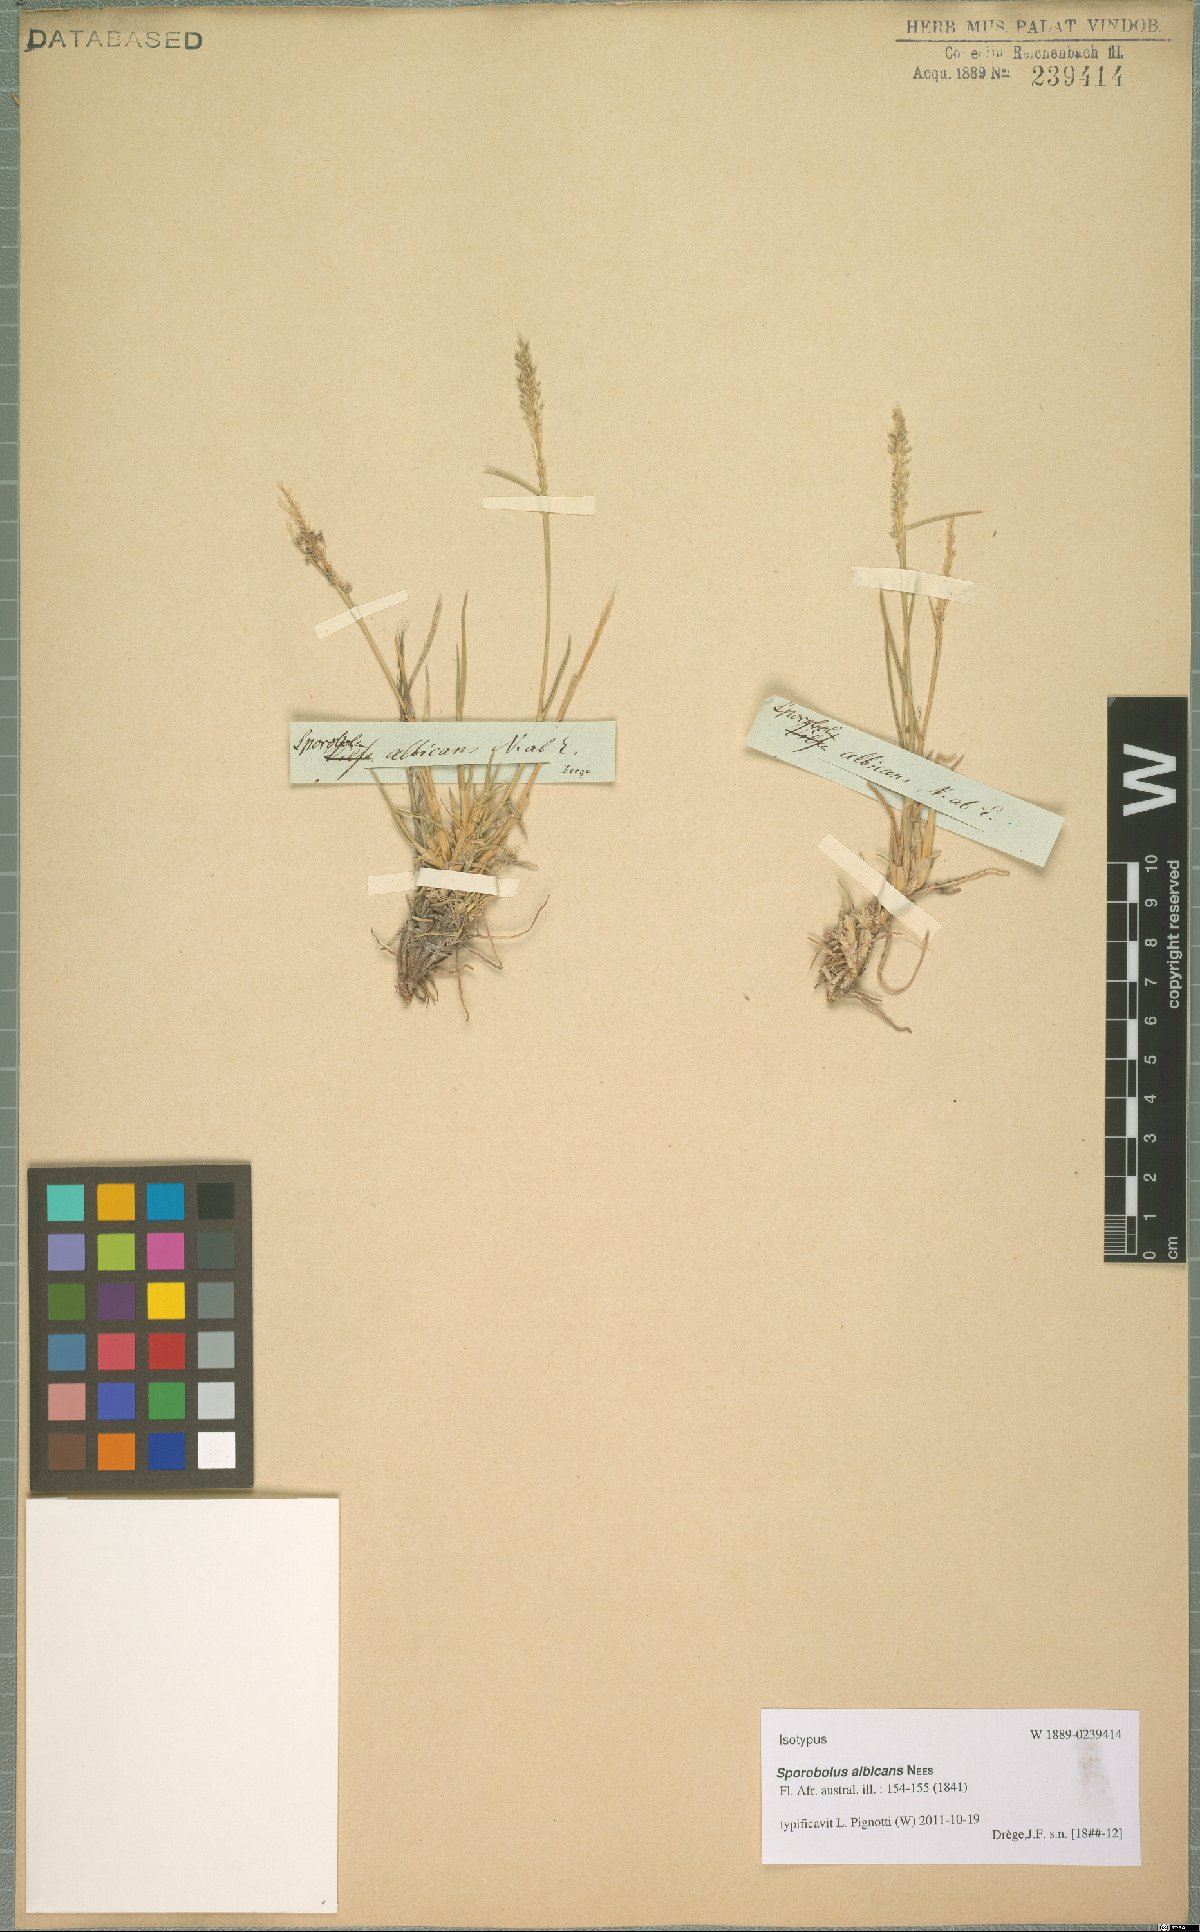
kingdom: Plantae
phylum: Tracheophyta
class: Liliopsida
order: Poales
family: Poaceae
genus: Sporobolus
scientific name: Sporobolus albicans
